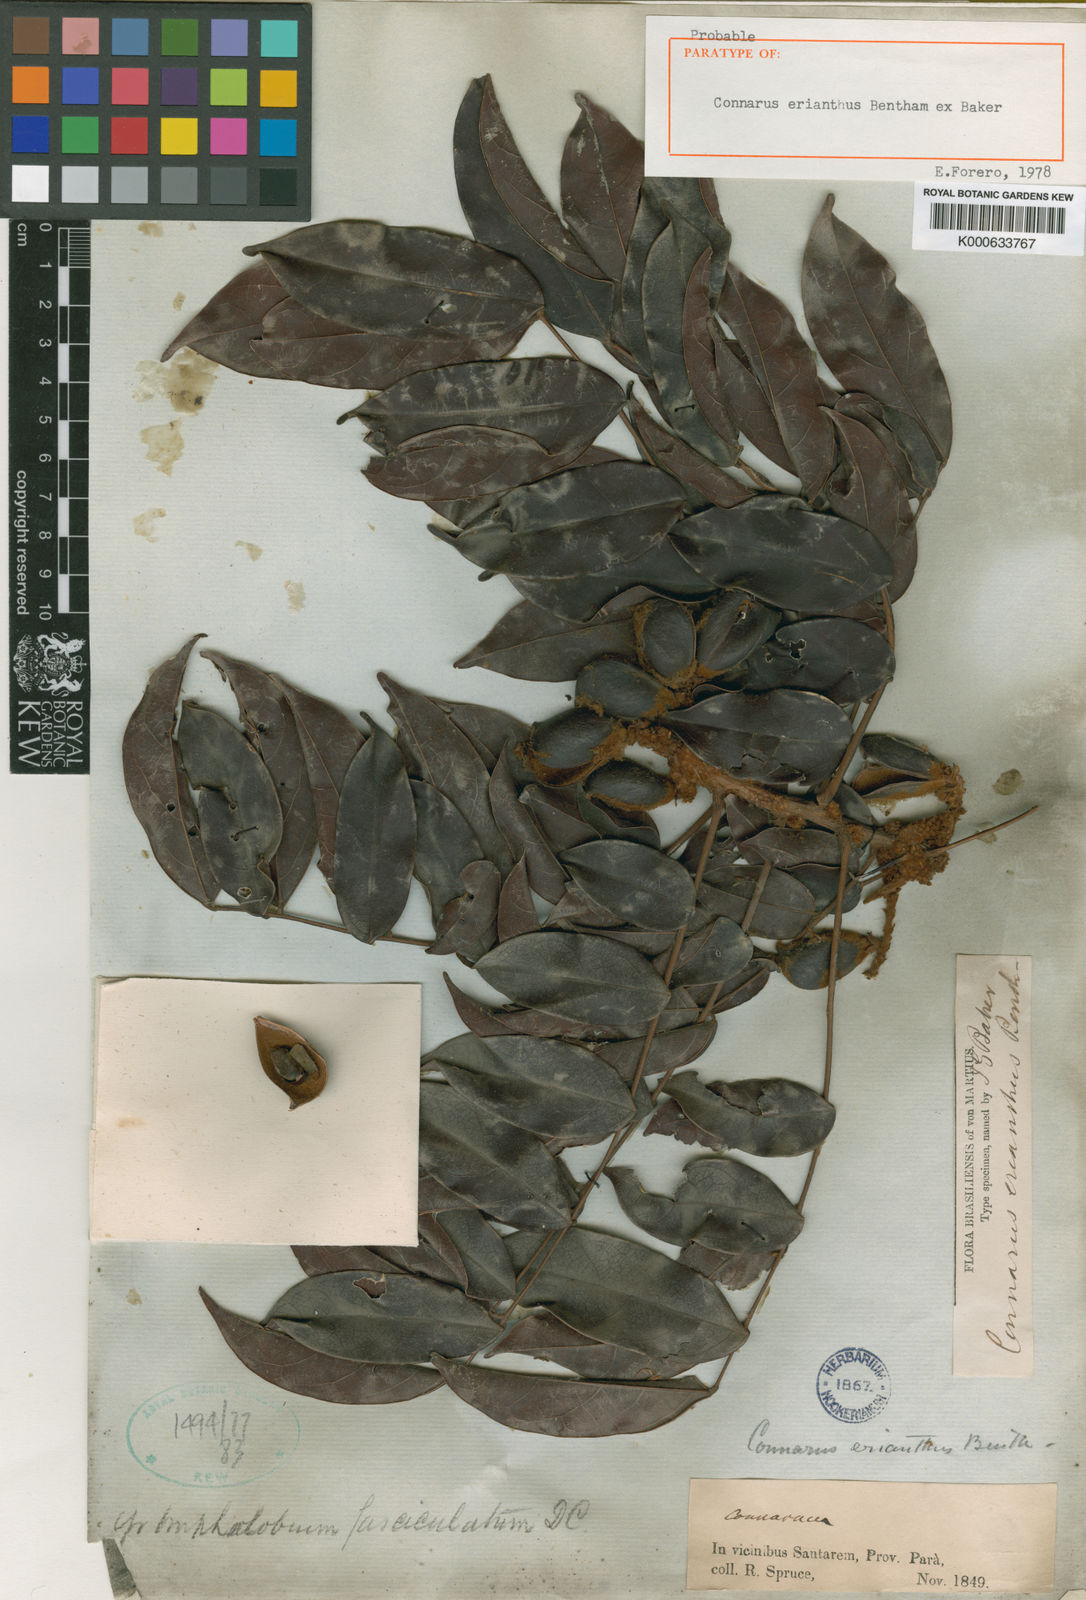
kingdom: Plantae
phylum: Tracheophyta
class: Magnoliopsida
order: Oxalidales
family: Connaraceae
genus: Connarus
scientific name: Connarus
